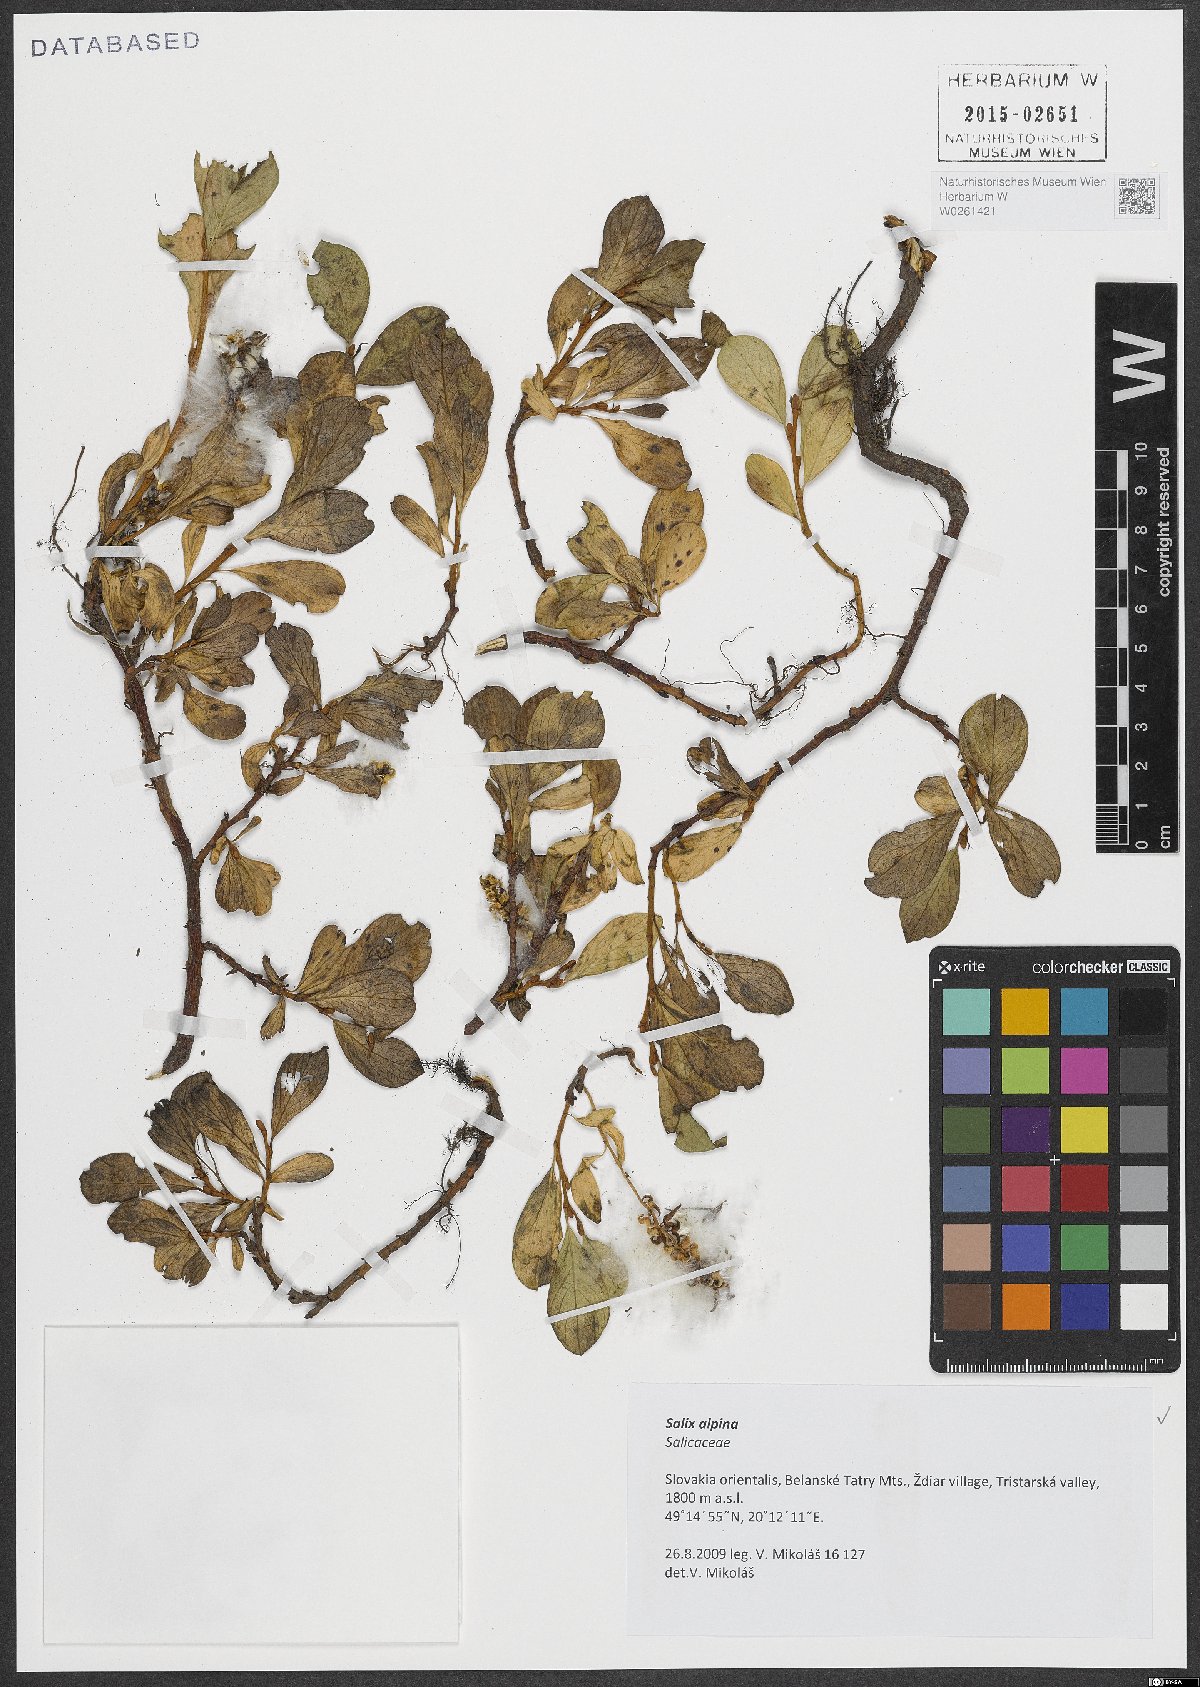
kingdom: Plantae
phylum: Tracheophyta
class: Magnoliopsida
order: Malpighiales
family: Salicaceae
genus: Salix
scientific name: Salix alpina
